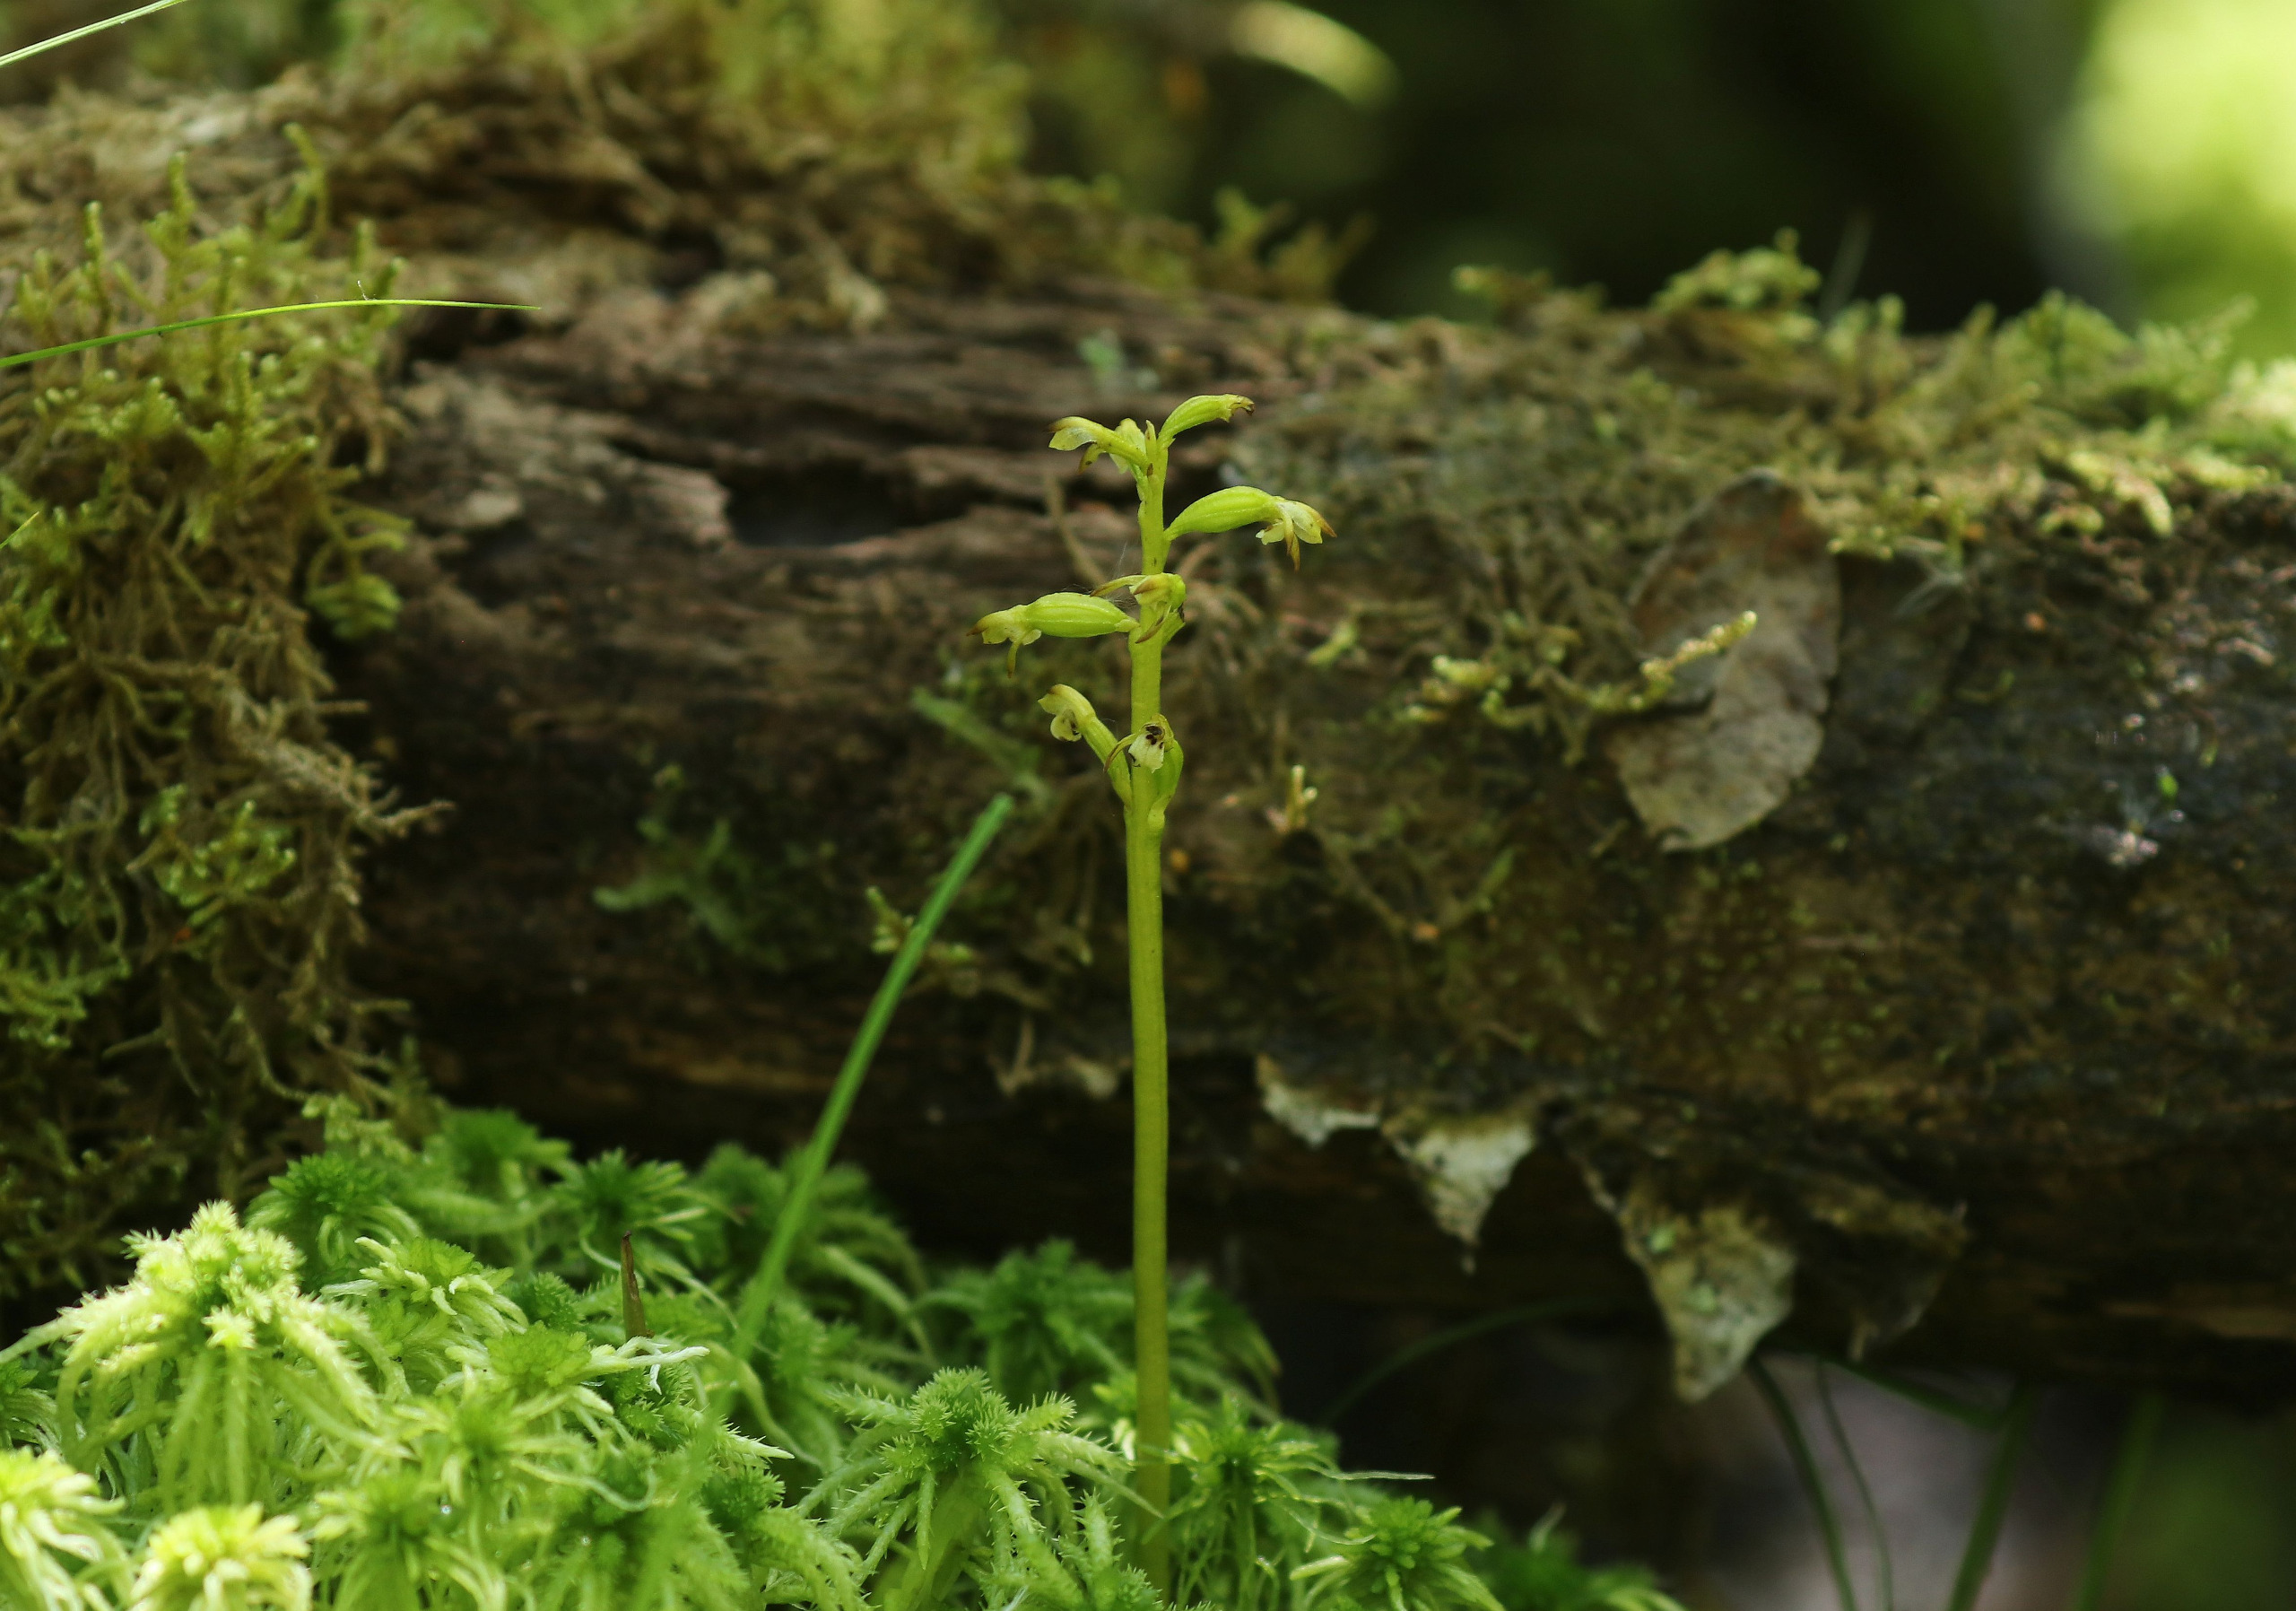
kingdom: Plantae
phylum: Tracheophyta
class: Liliopsida
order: Asparagales
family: Orchidaceae
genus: Corallorhiza
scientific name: Corallorhiza trifida
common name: Koralrod
